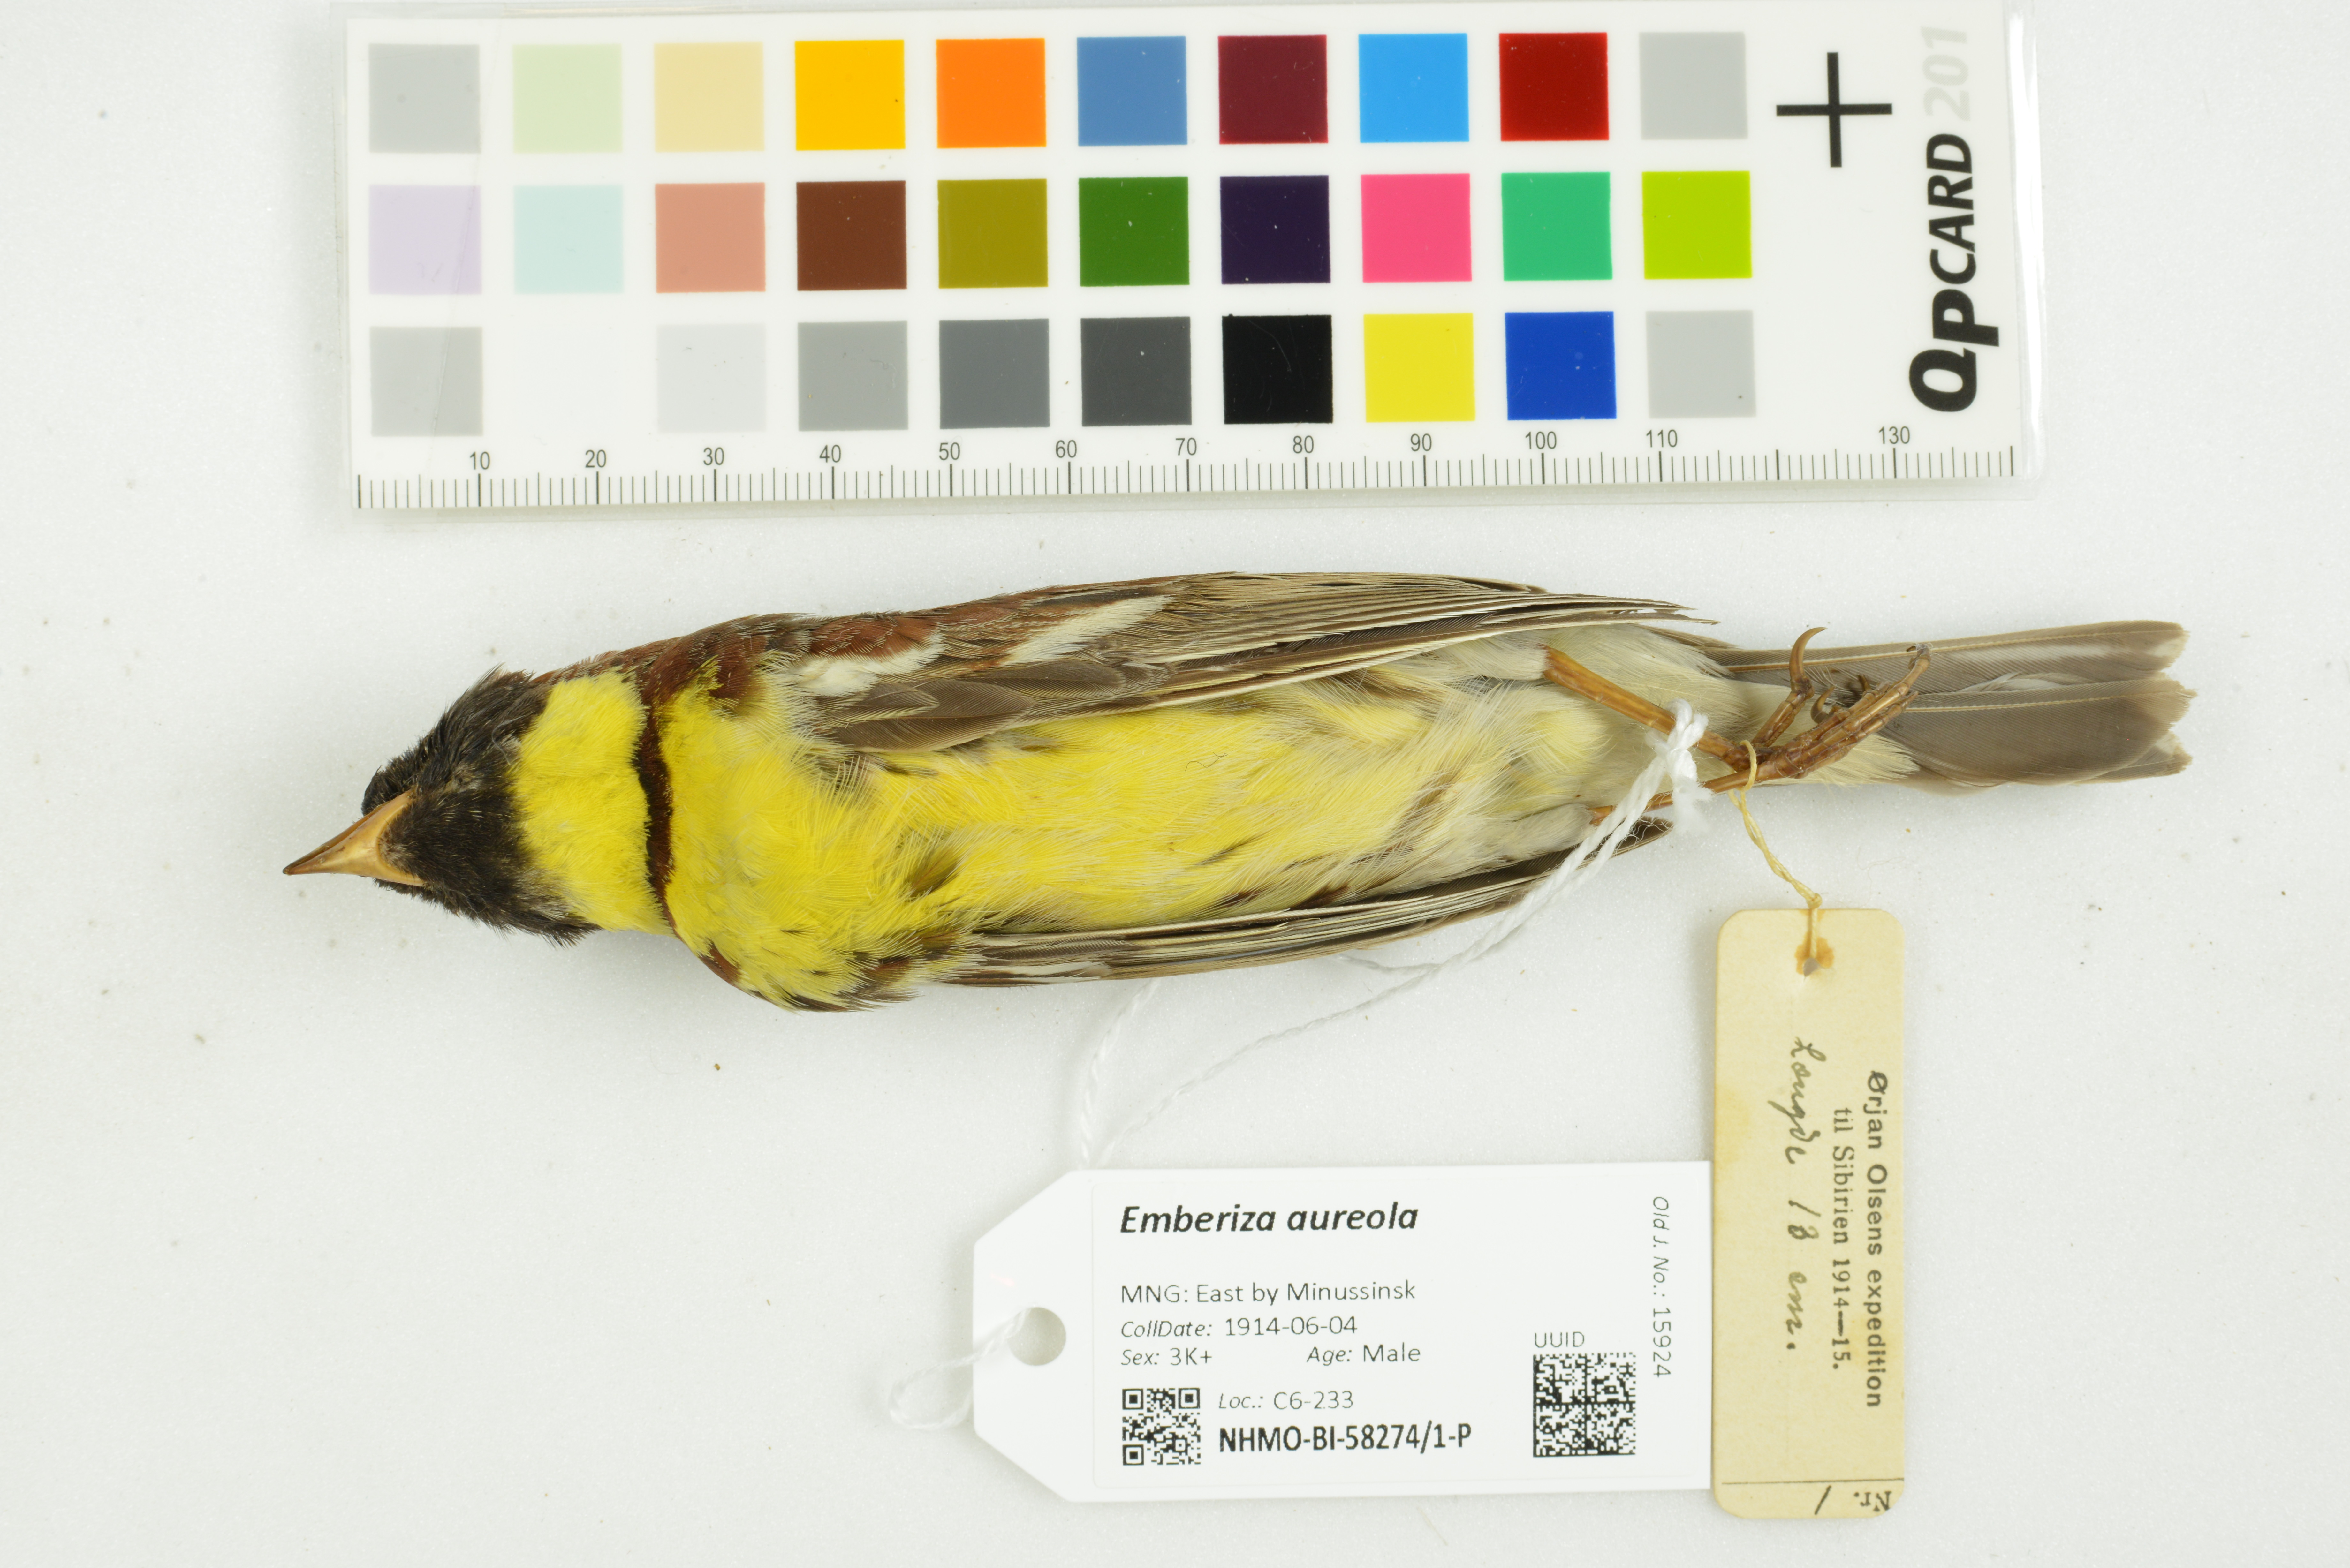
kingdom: Animalia
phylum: Chordata
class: Aves
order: Passeriformes
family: Emberizidae
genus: Emberiza
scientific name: Emberiza aureola
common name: Yellow-breasted bunting
